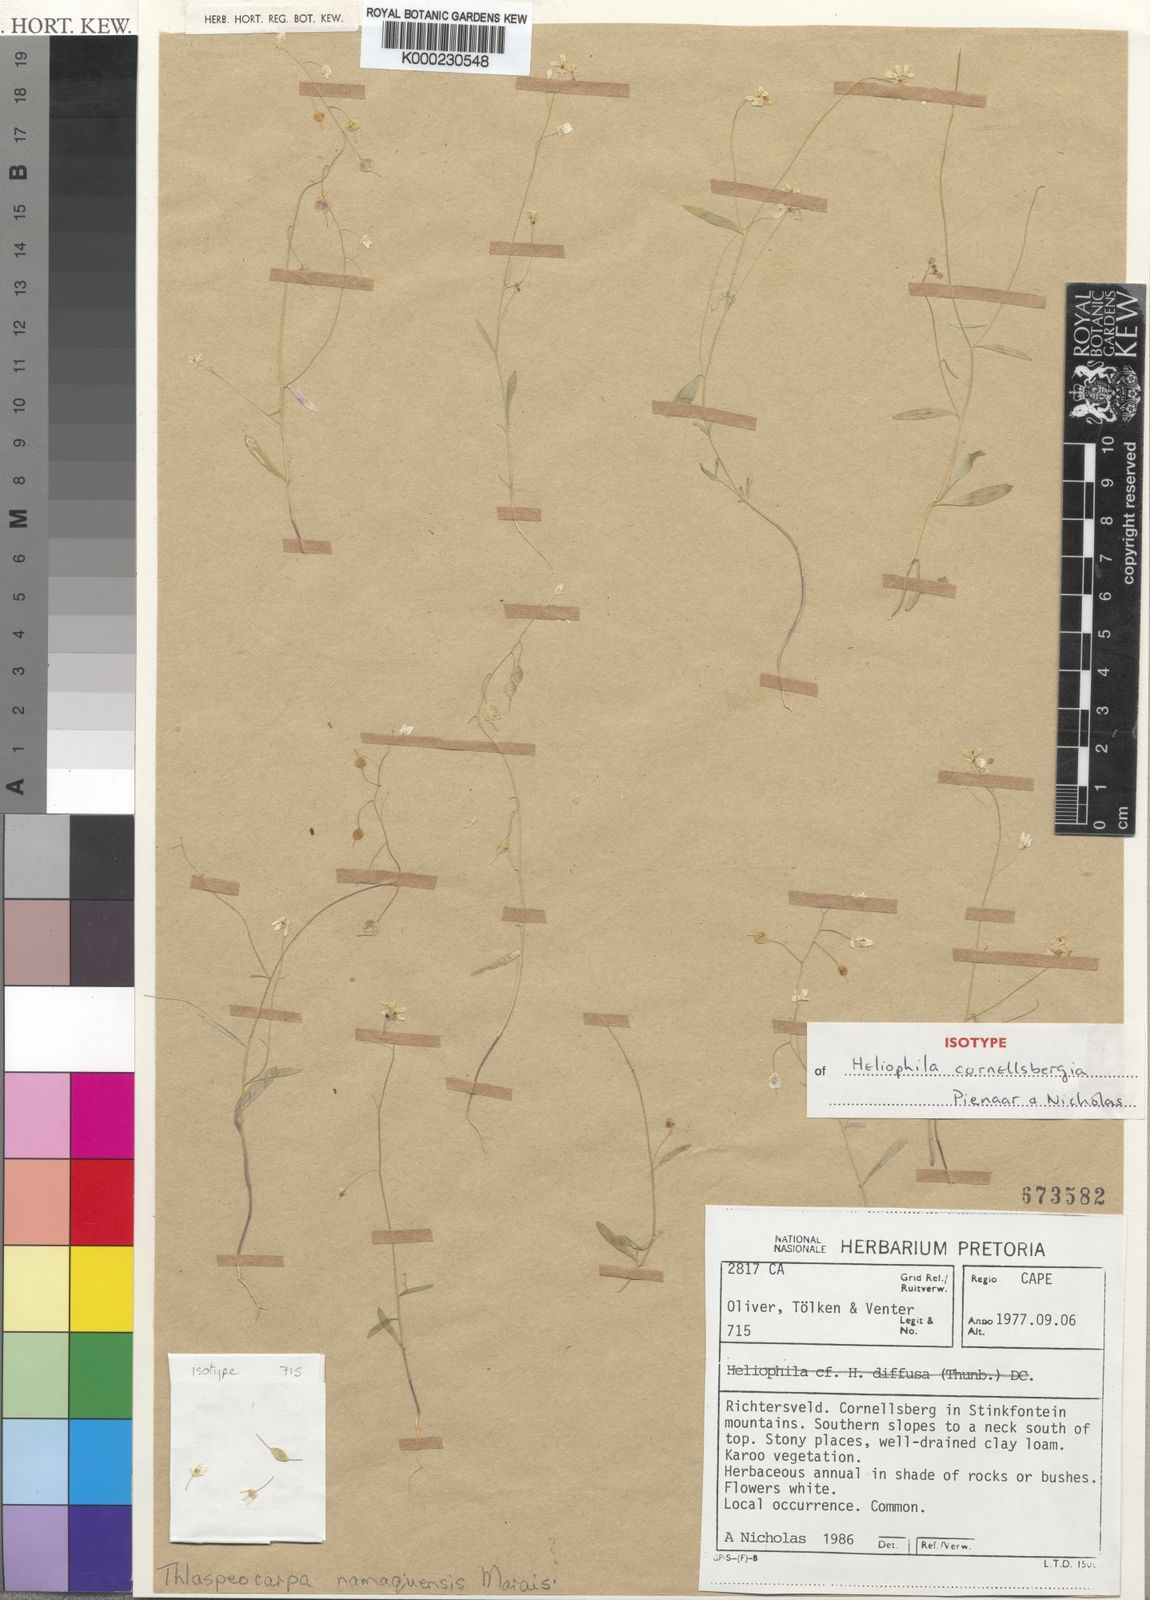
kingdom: Plantae
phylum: Tracheophyta
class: Magnoliopsida
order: Brassicales
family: Brassicaceae
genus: Heliophila
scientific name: Heliophila cornellsbergia
